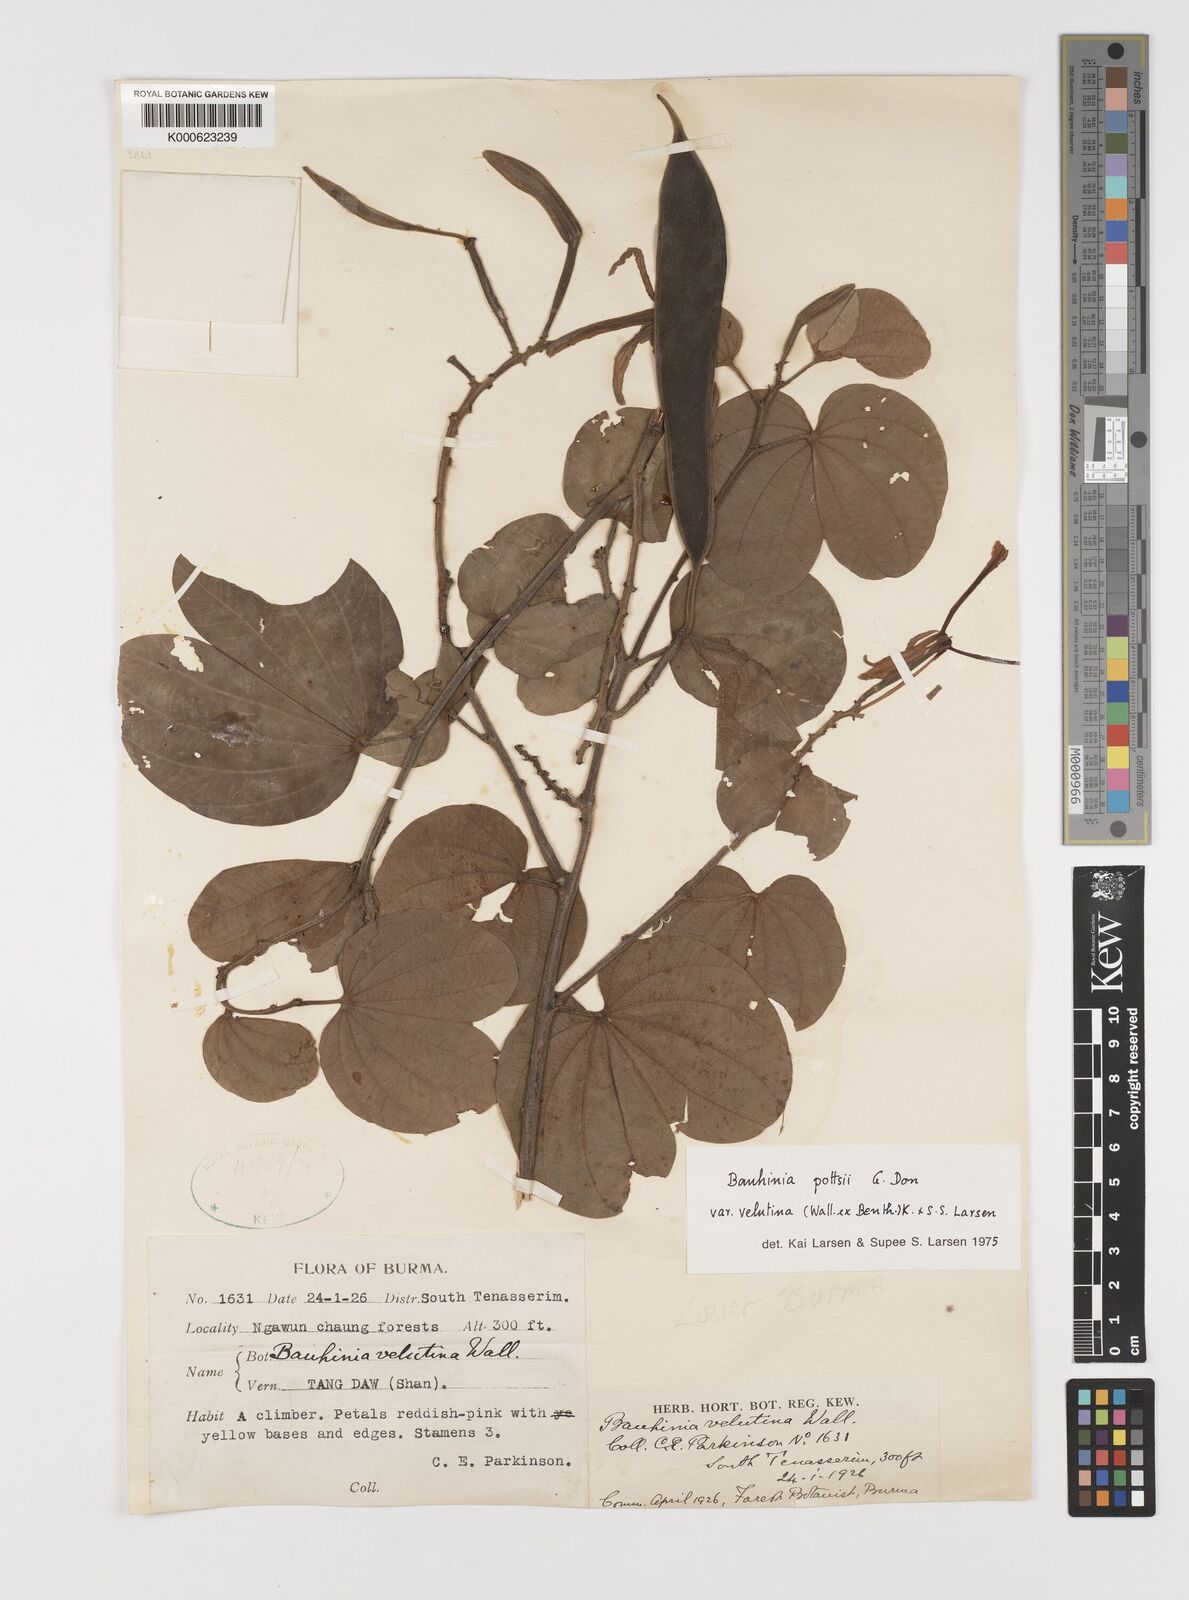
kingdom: Plantae
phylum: Tracheophyta
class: Magnoliopsida
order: Fabales
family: Fabaceae
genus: Bauhinia
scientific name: Bauhinia pottsii
